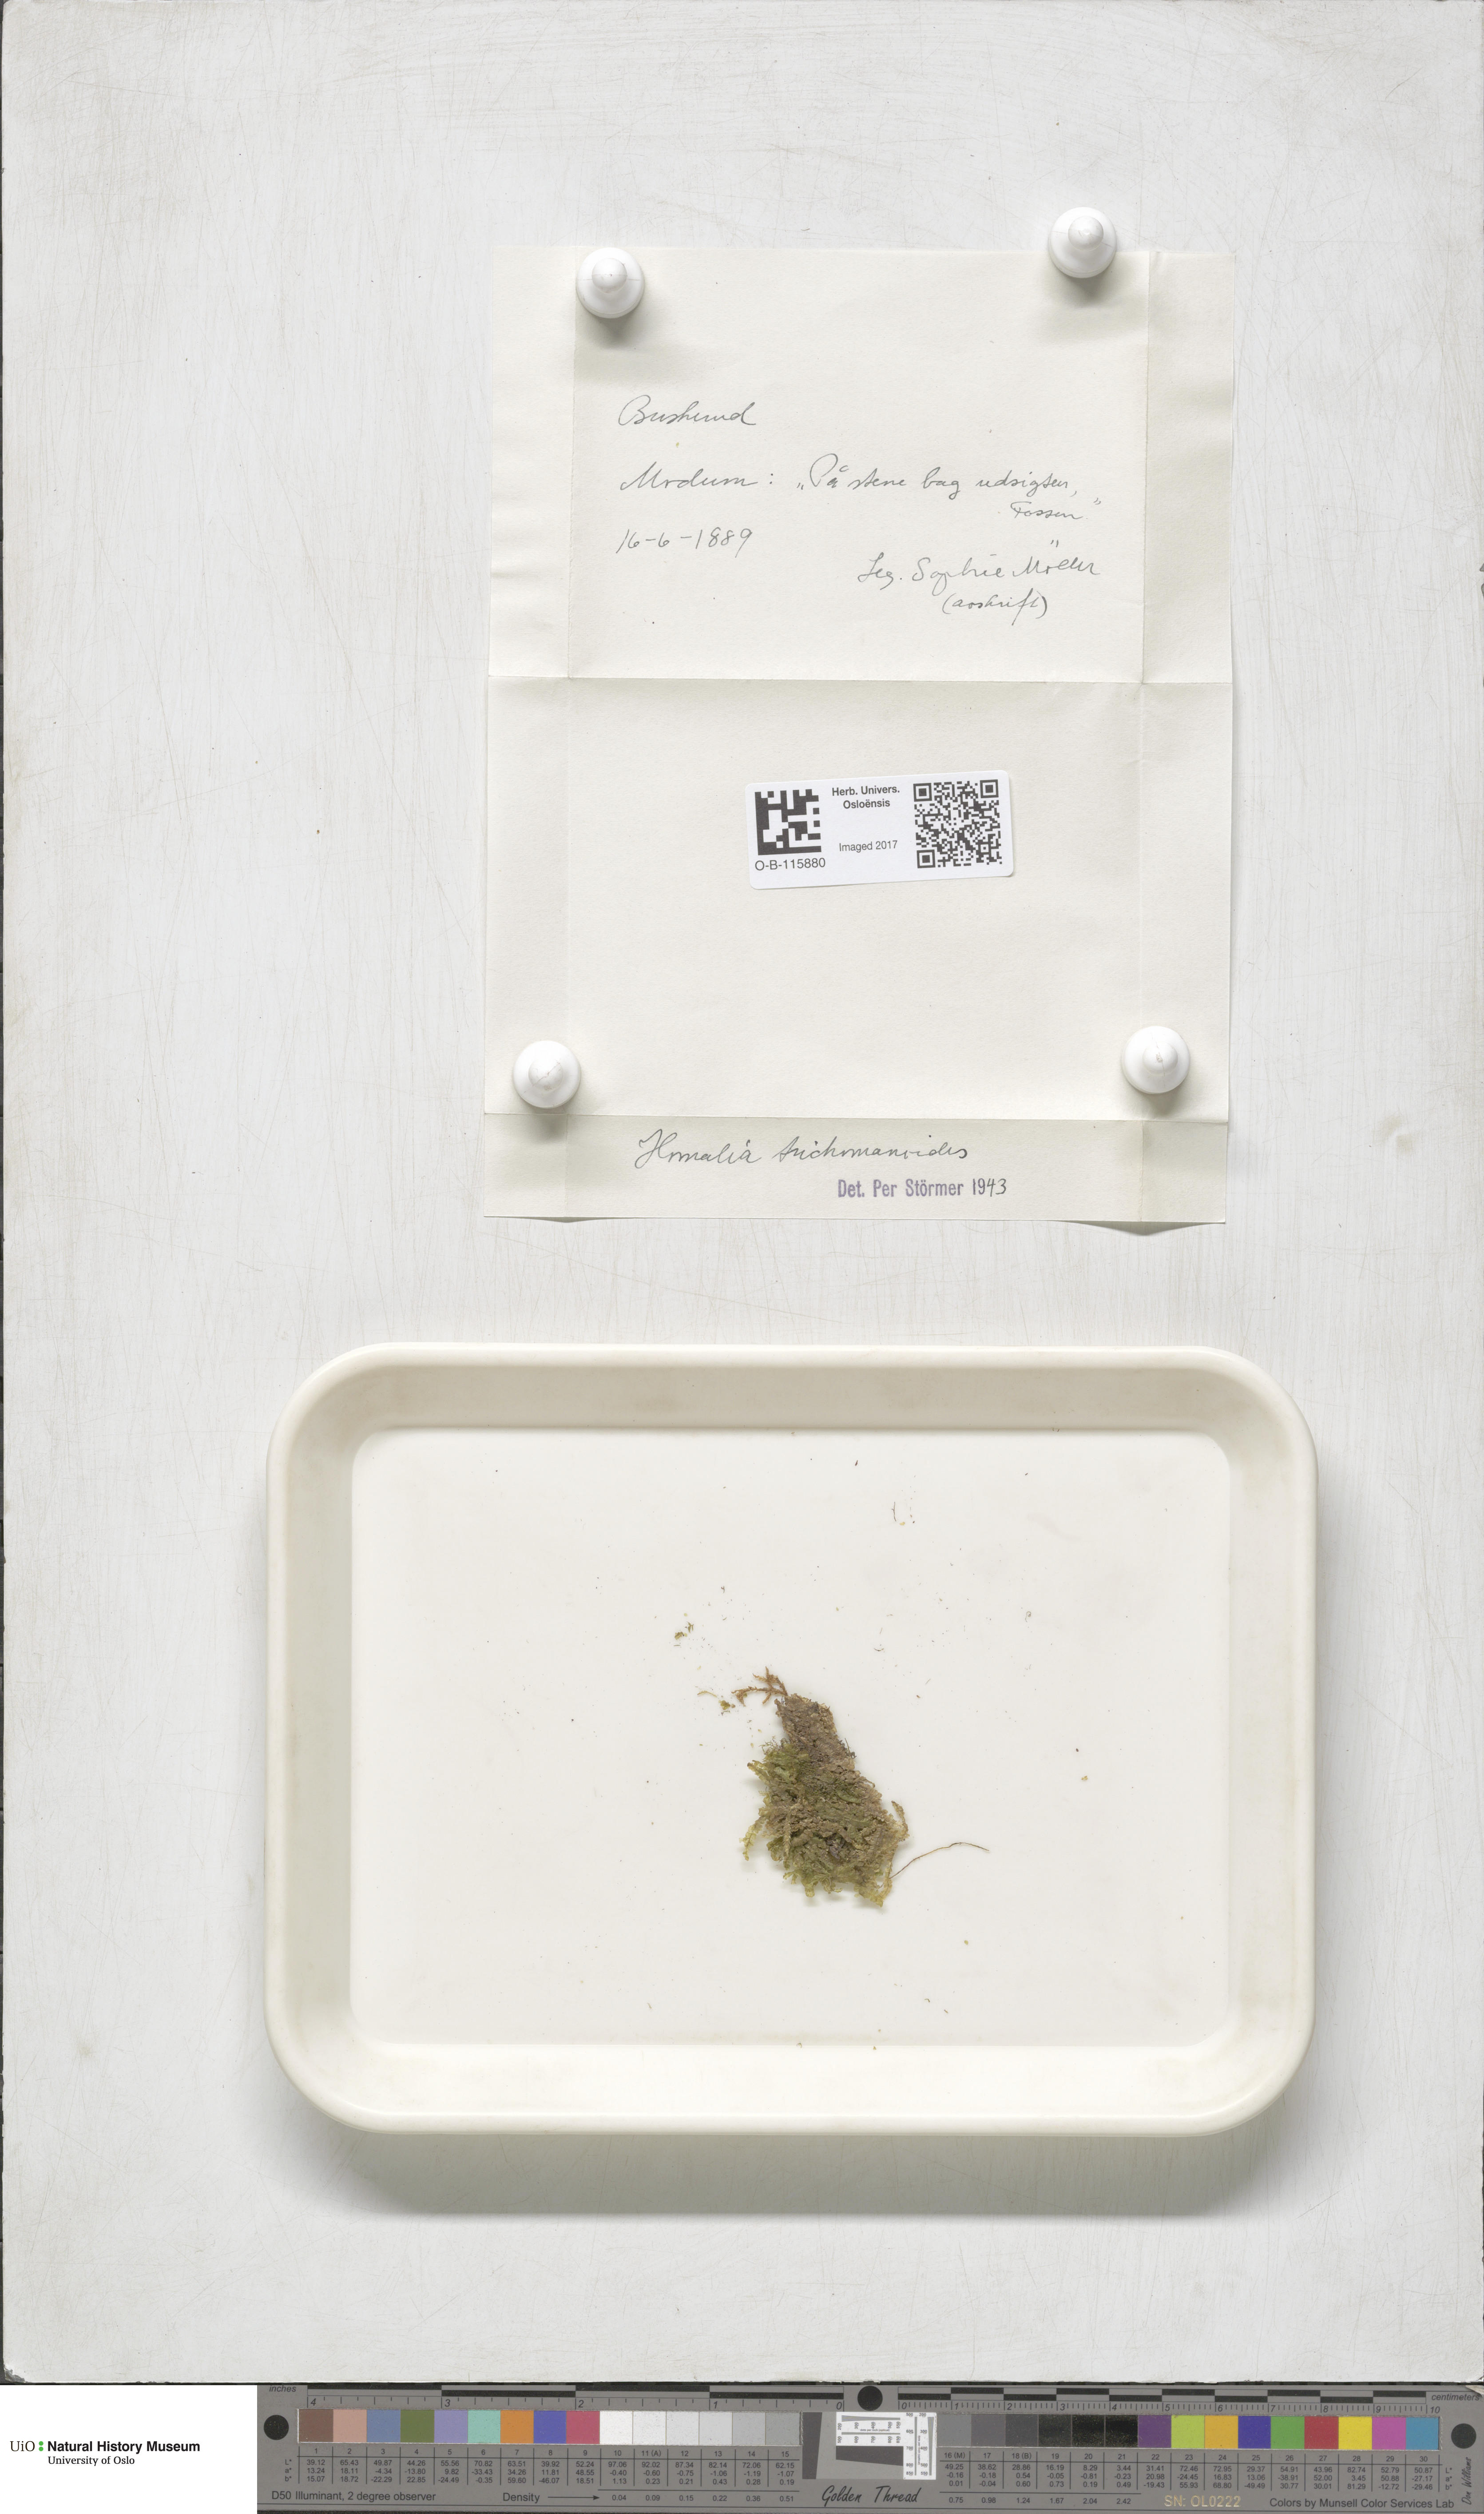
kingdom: Plantae
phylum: Bryophyta
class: Bryopsida
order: Hypnales
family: Neckeraceae
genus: Homalia
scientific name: Homalia trichomanoides
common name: Lime homalia moss
